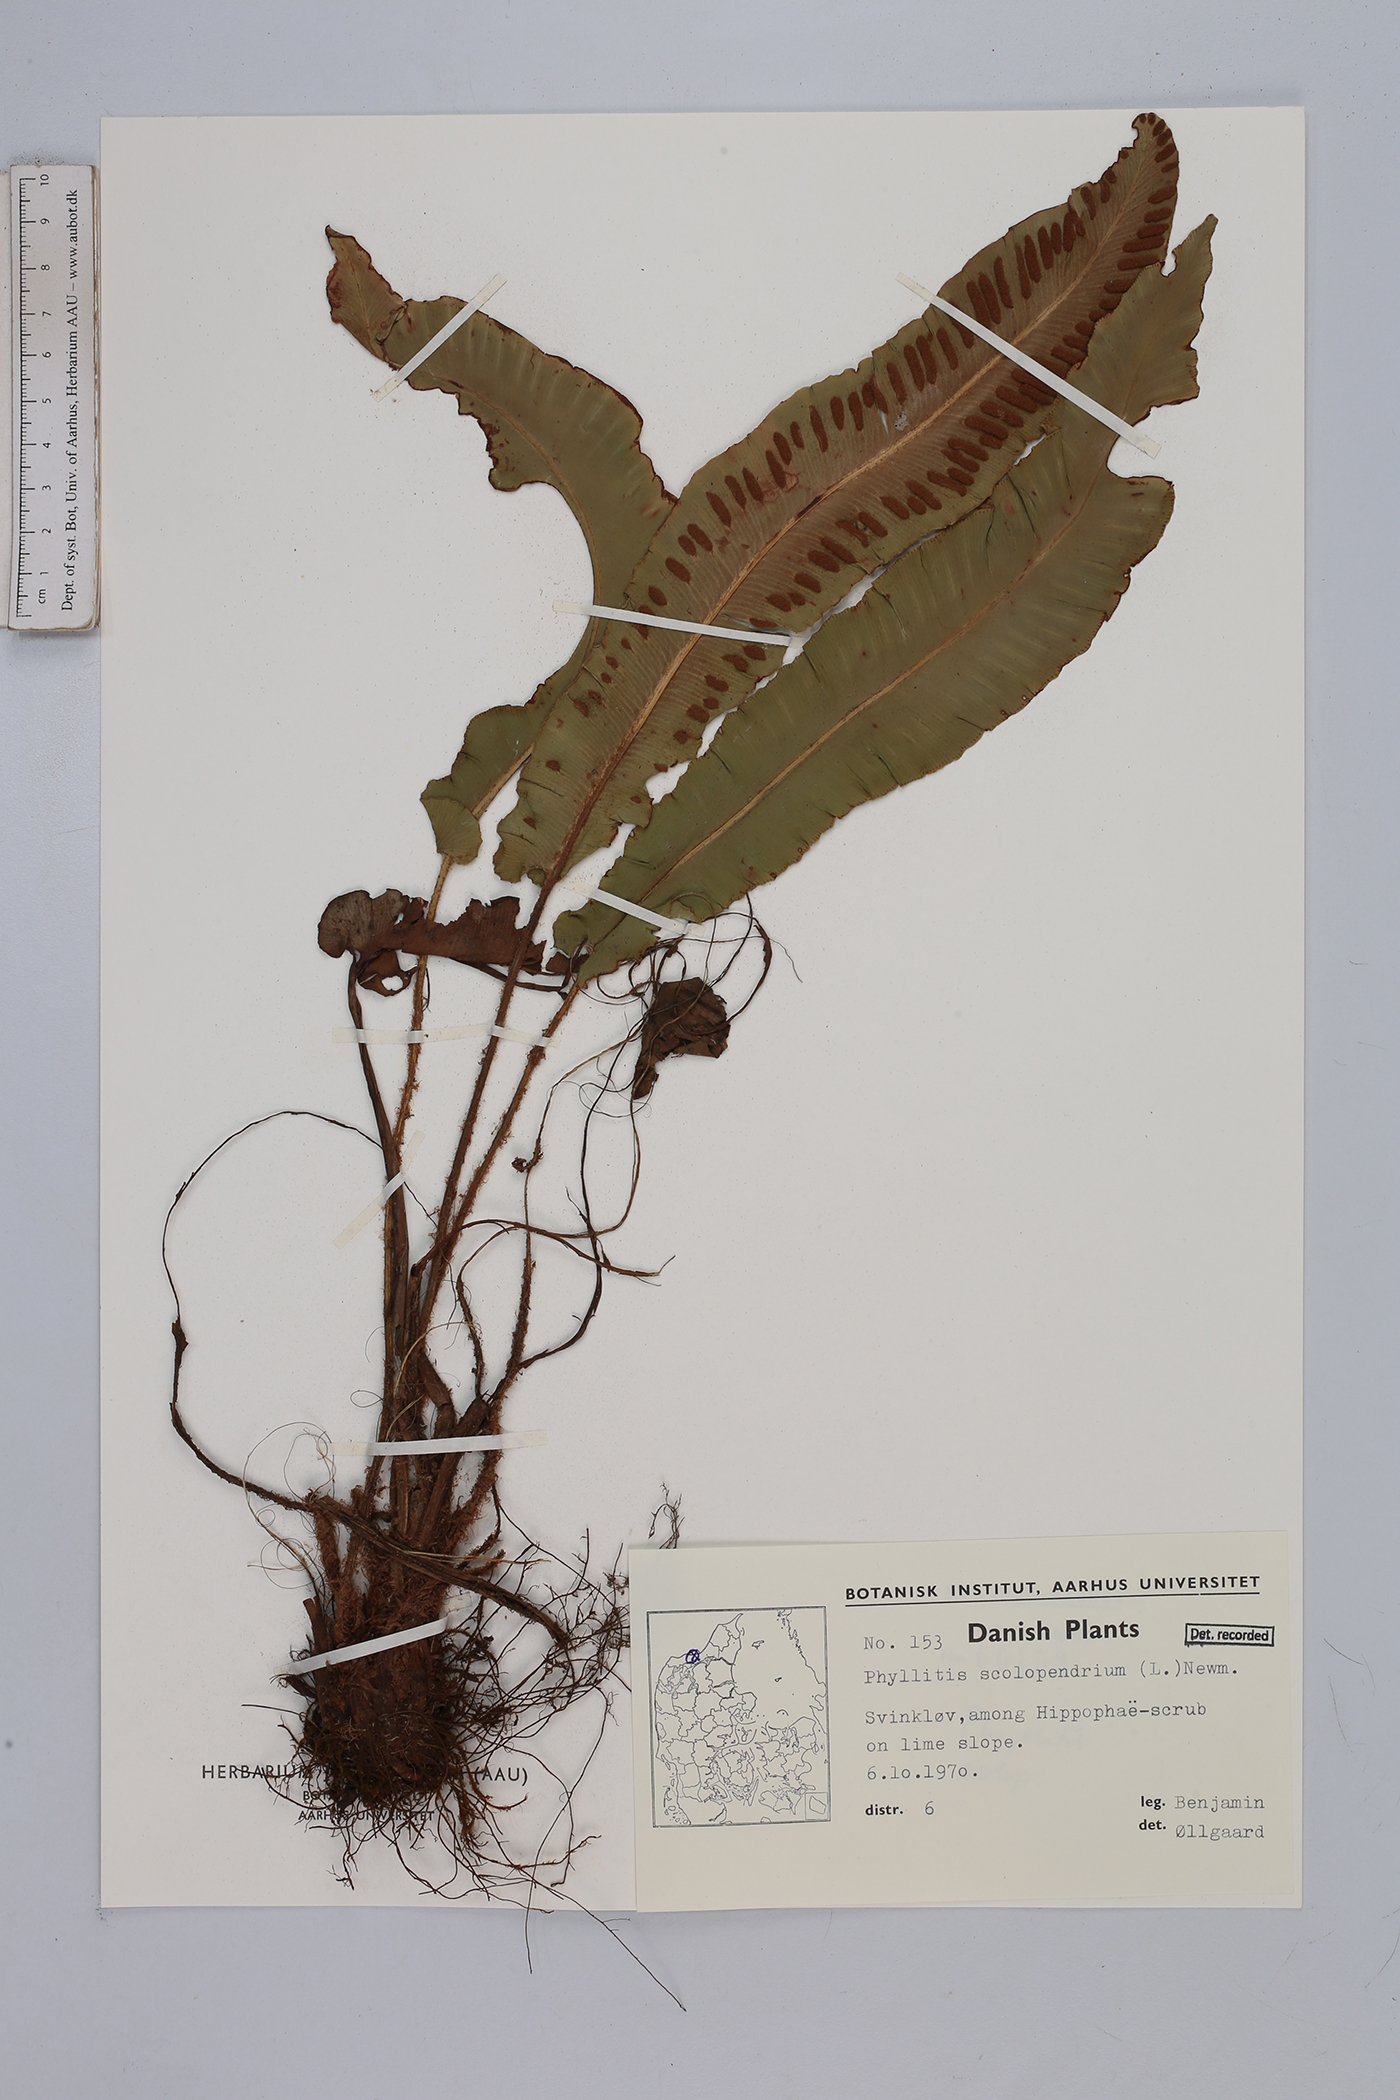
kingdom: Plantae
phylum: Tracheophyta
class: Polypodiopsida
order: Polypodiales
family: Aspleniaceae
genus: Asplenium
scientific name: Asplenium scolopendrium
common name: Hart's-tongue fern
